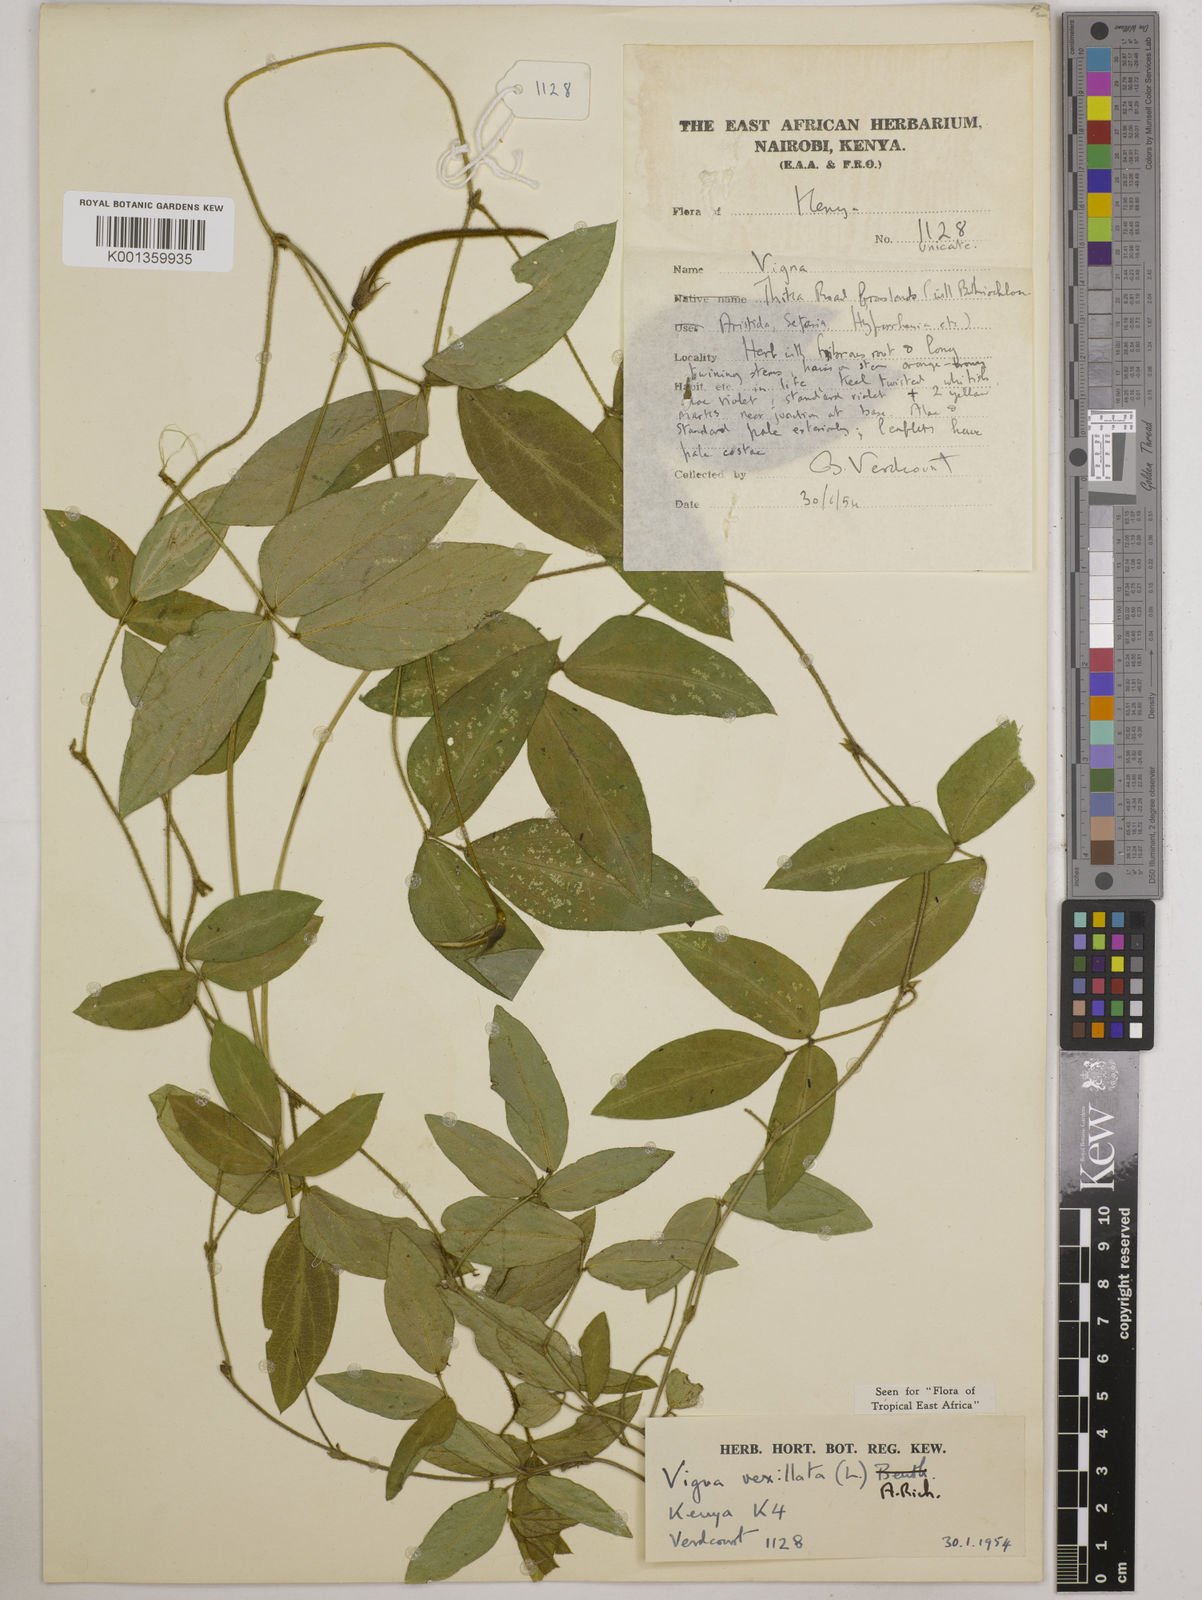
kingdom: Plantae
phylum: Tracheophyta
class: Magnoliopsida
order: Fabales
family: Fabaceae
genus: Vigna
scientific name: Vigna vexillata
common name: Zombi pea
